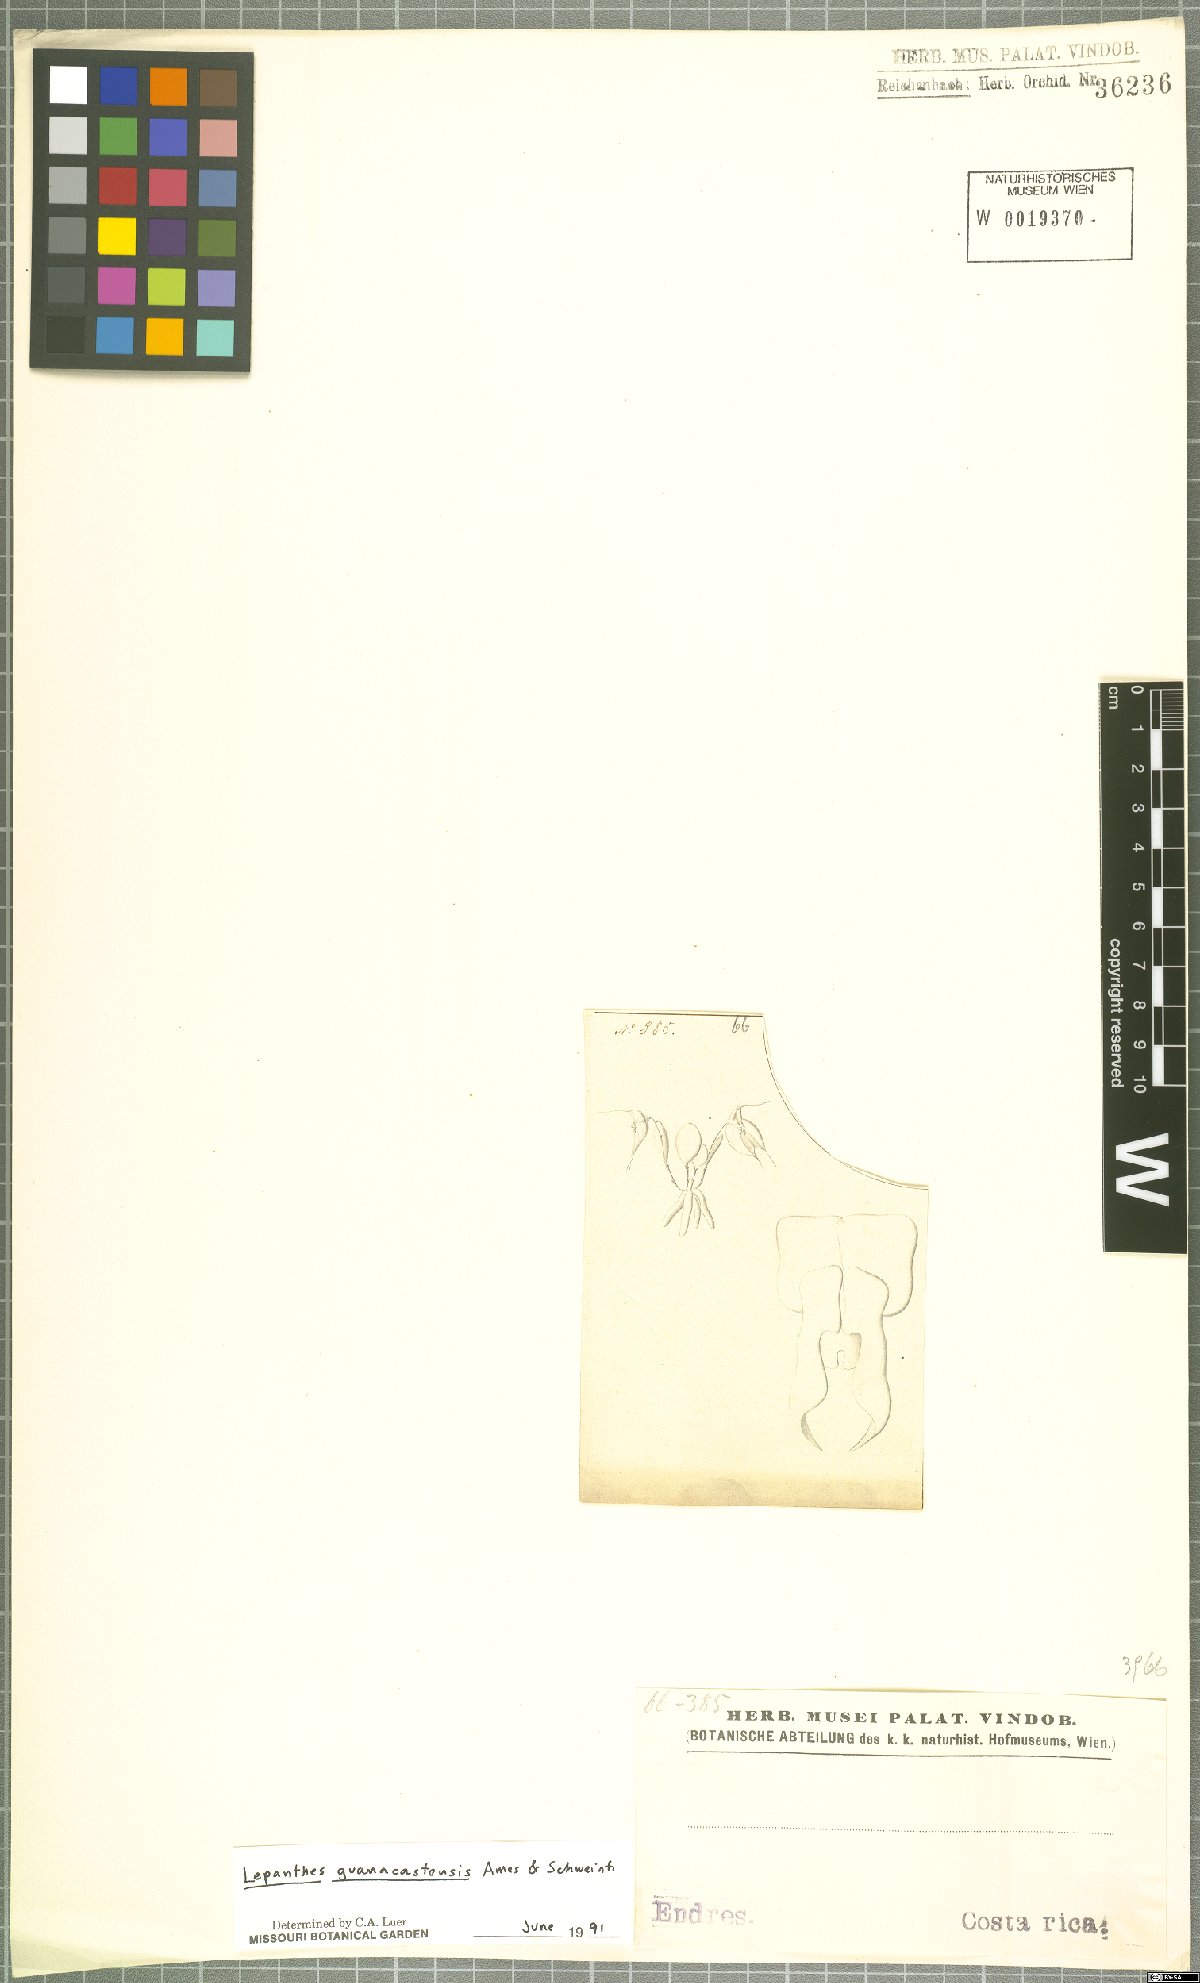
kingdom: Plantae
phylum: Tracheophyta
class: Liliopsida
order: Asparagales
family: Orchidaceae
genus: Lepanthes
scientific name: Lepanthes guanacastensis
